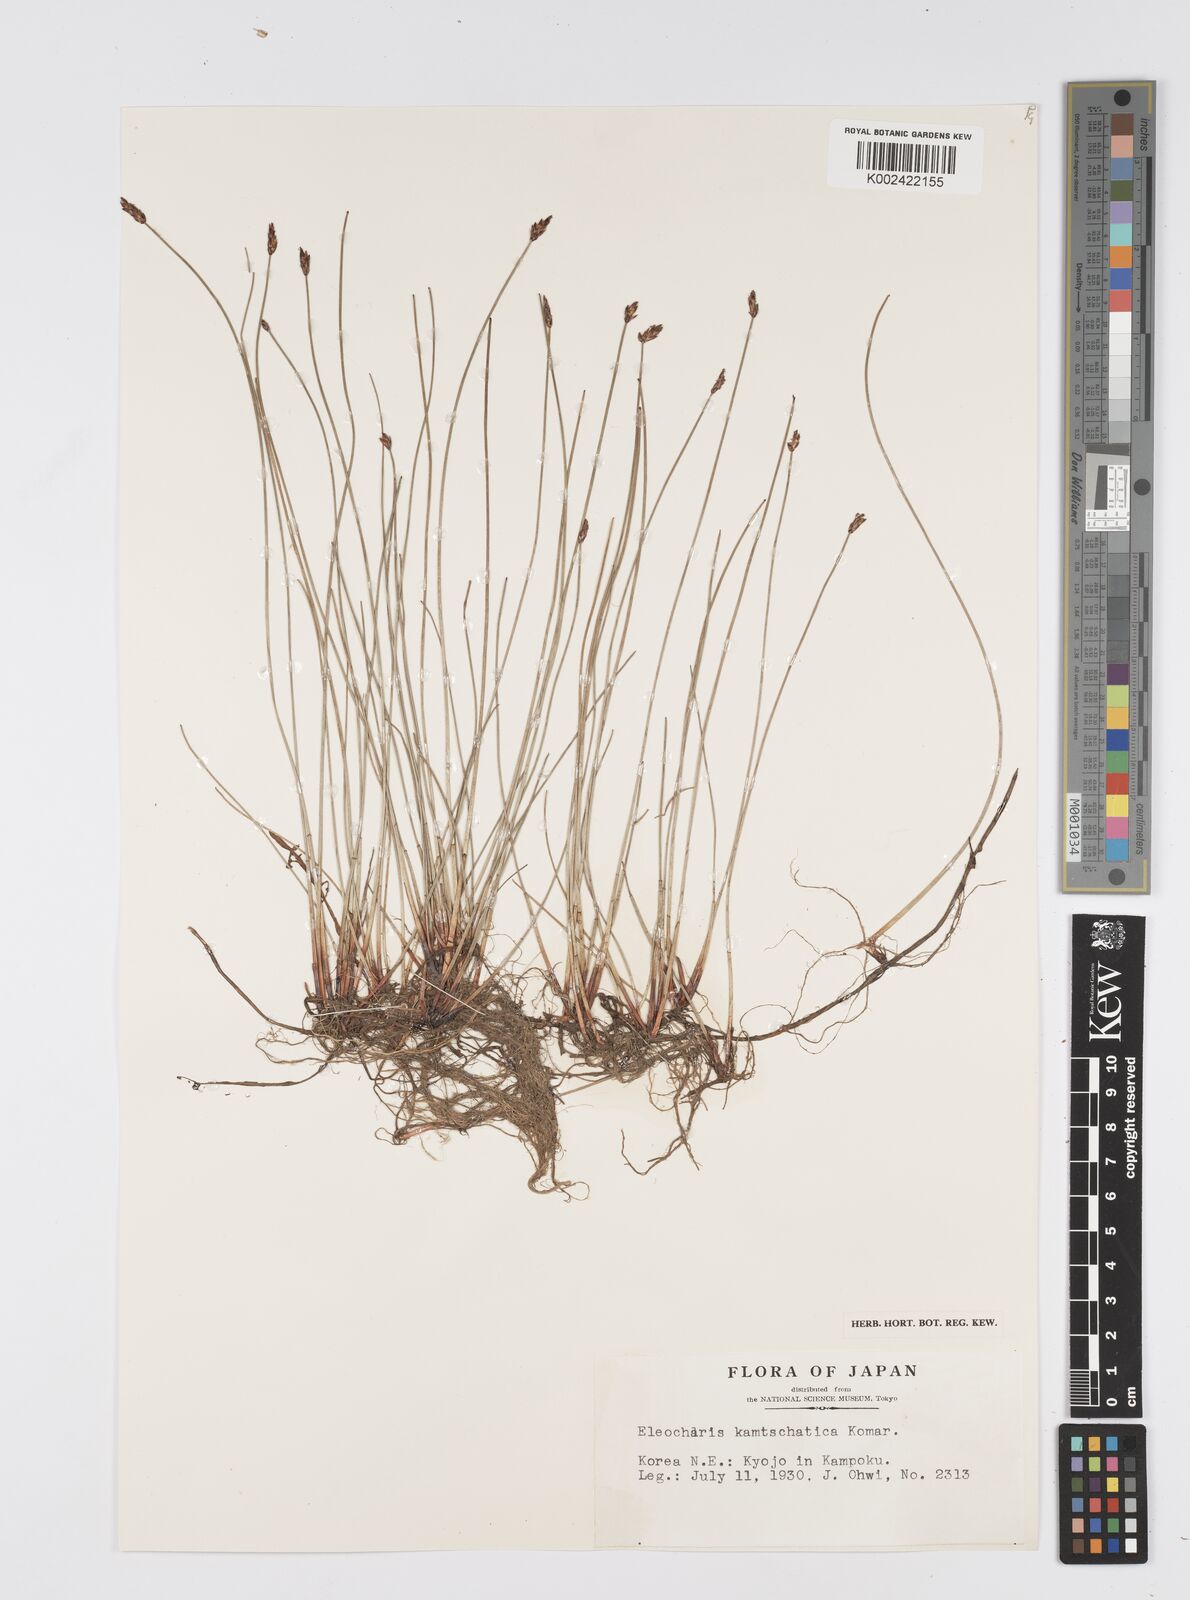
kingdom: Plantae
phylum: Tracheophyta
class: Liliopsida
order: Poales
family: Cyperaceae
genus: Eleocharis
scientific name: Eleocharis kamtschatica
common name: Kamchatka spikerush
